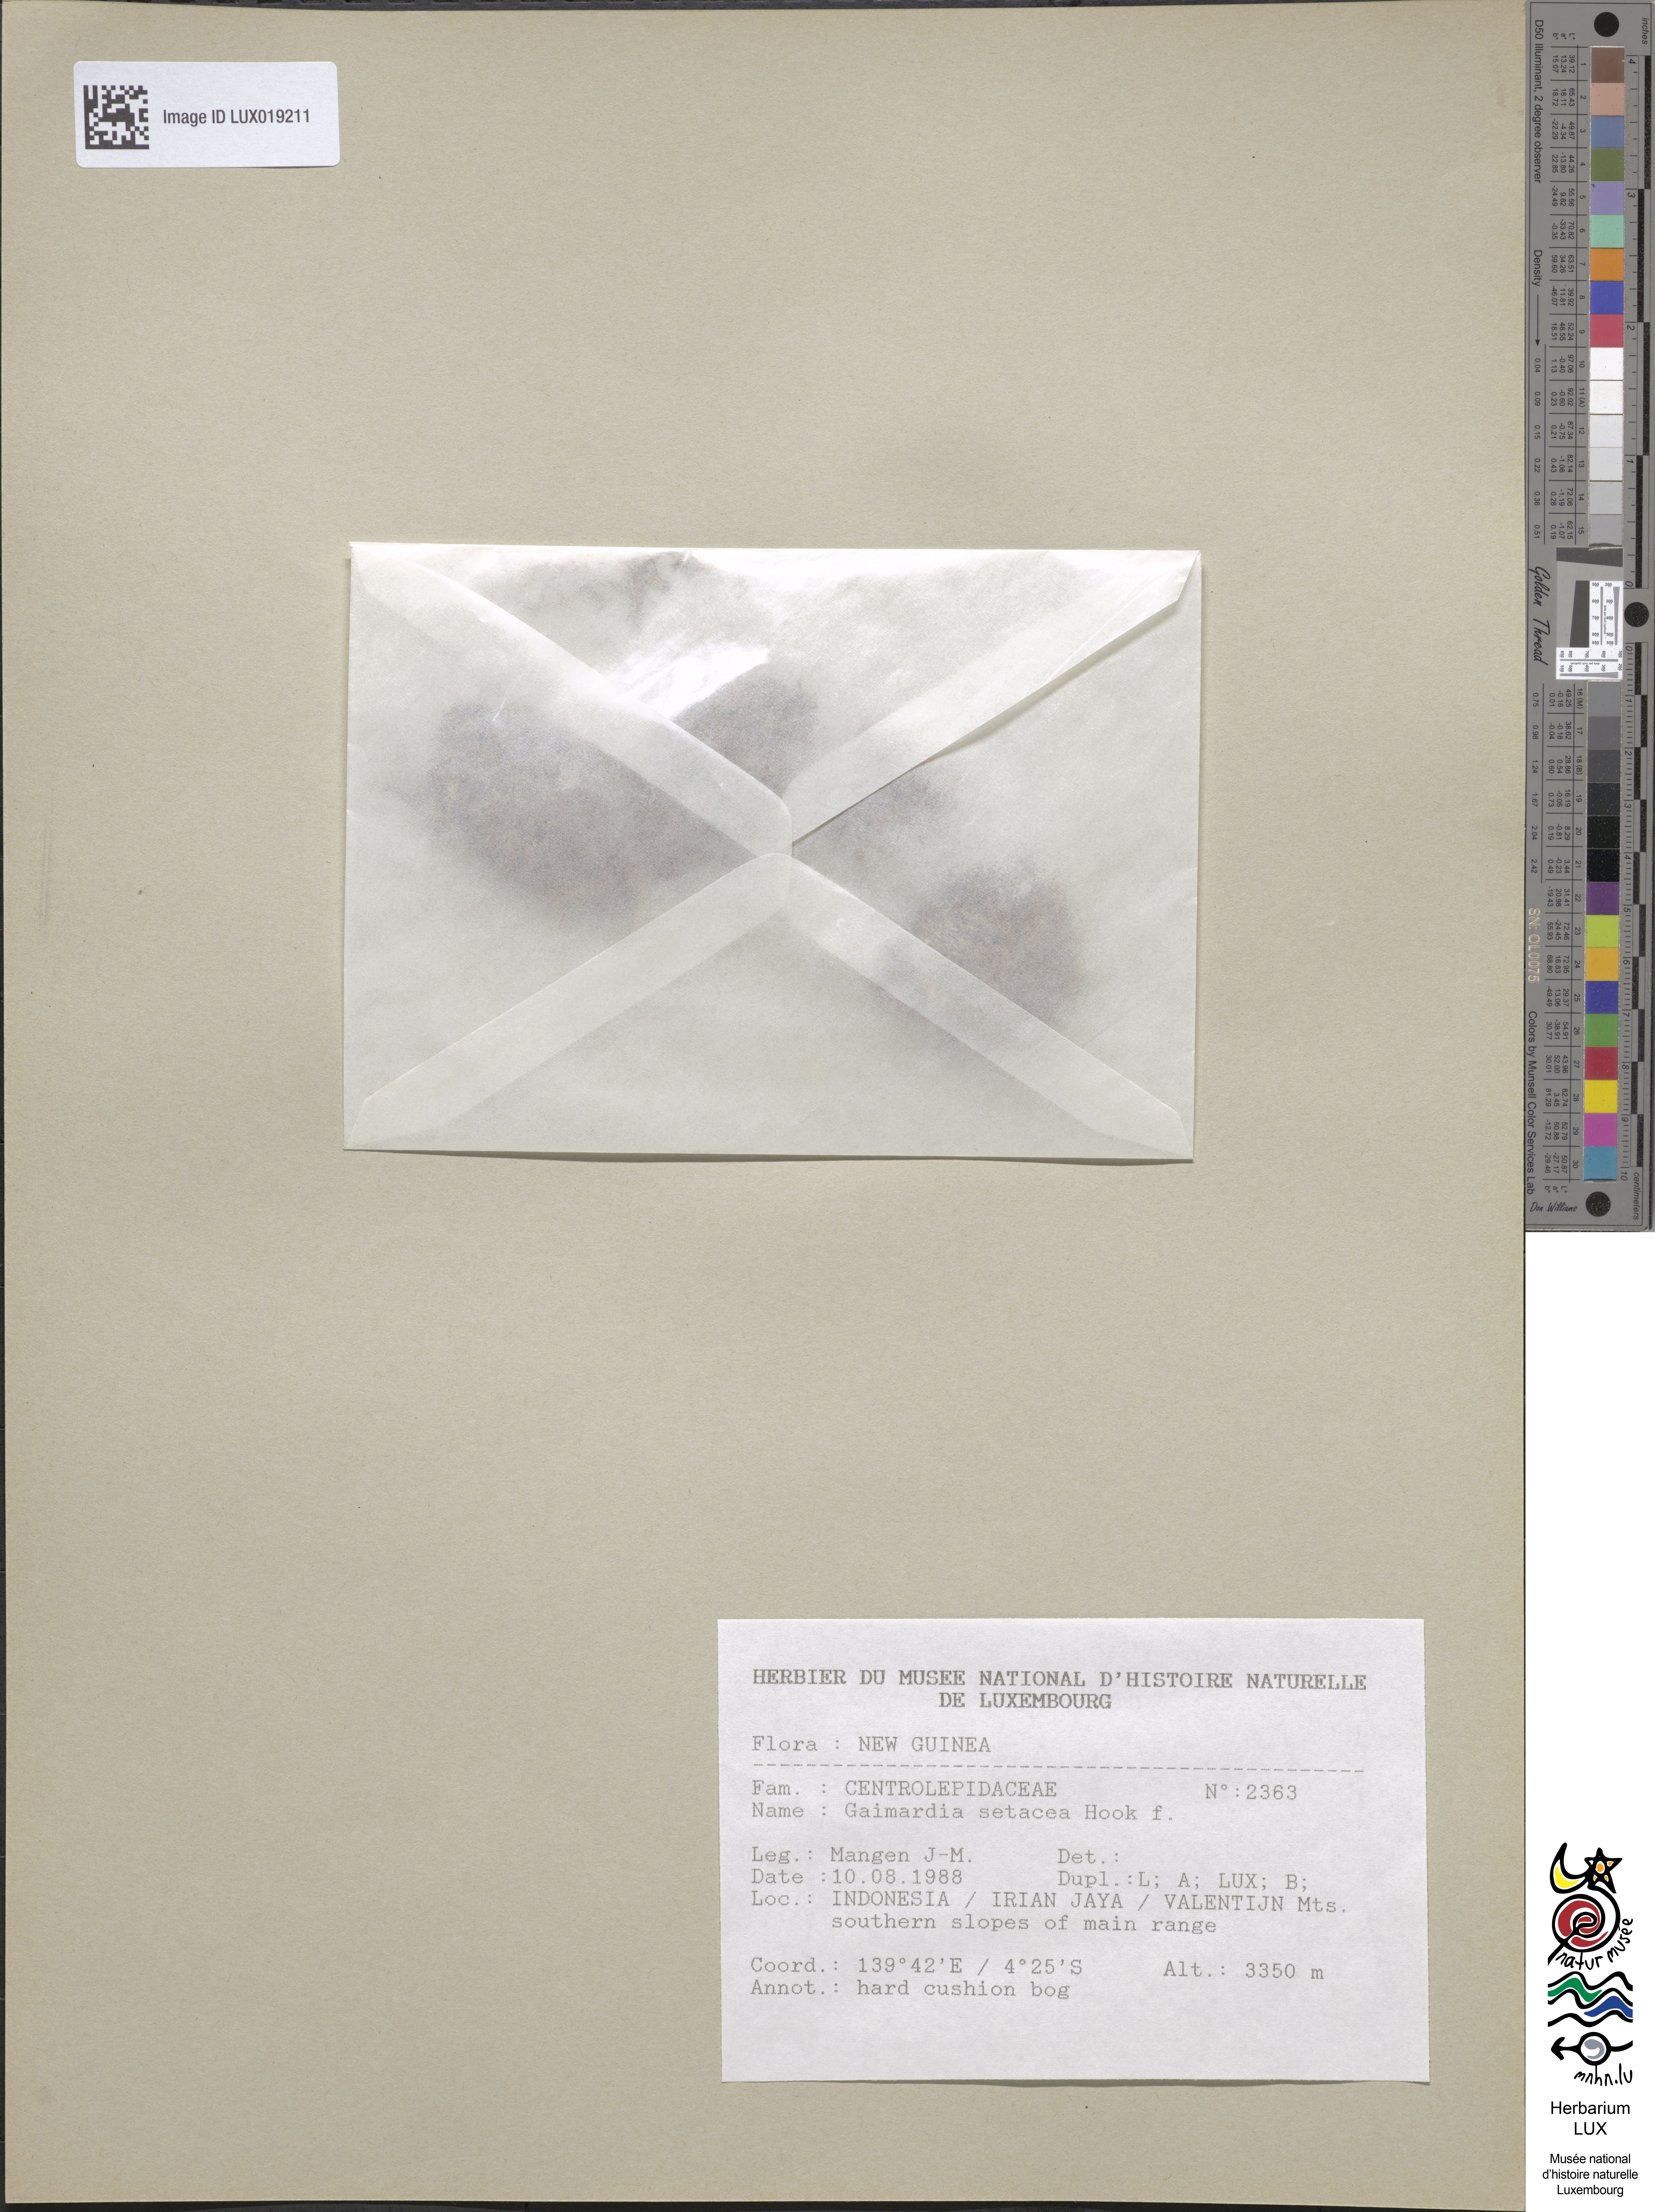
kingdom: Plantae
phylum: Tracheophyta
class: Liliopsida
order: Poales
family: Restionaceae
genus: Gaimardia
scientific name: Gaimardia setacea
